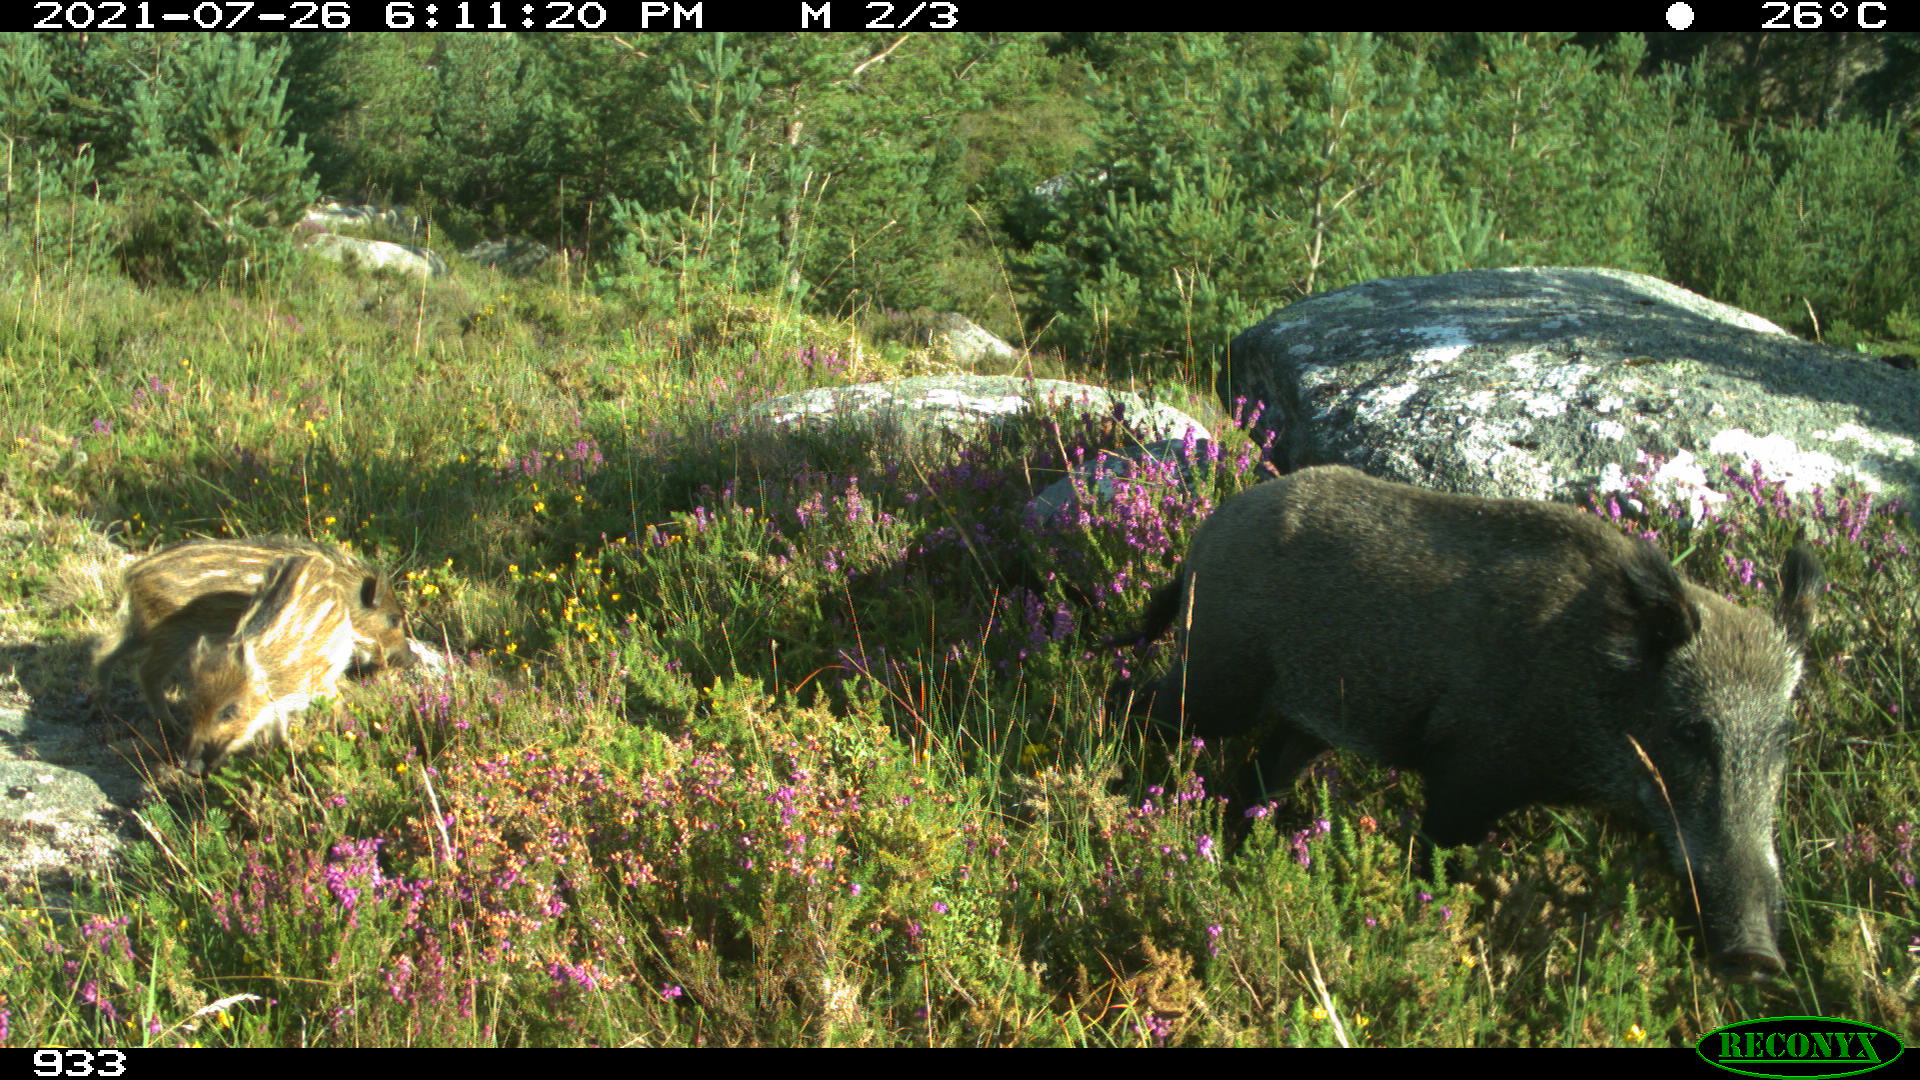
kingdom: Animalia
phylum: Chordata
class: Mammalia
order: Artiodactyla
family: Suidae
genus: Sus
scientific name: Sus scrofa
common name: Wild boar
